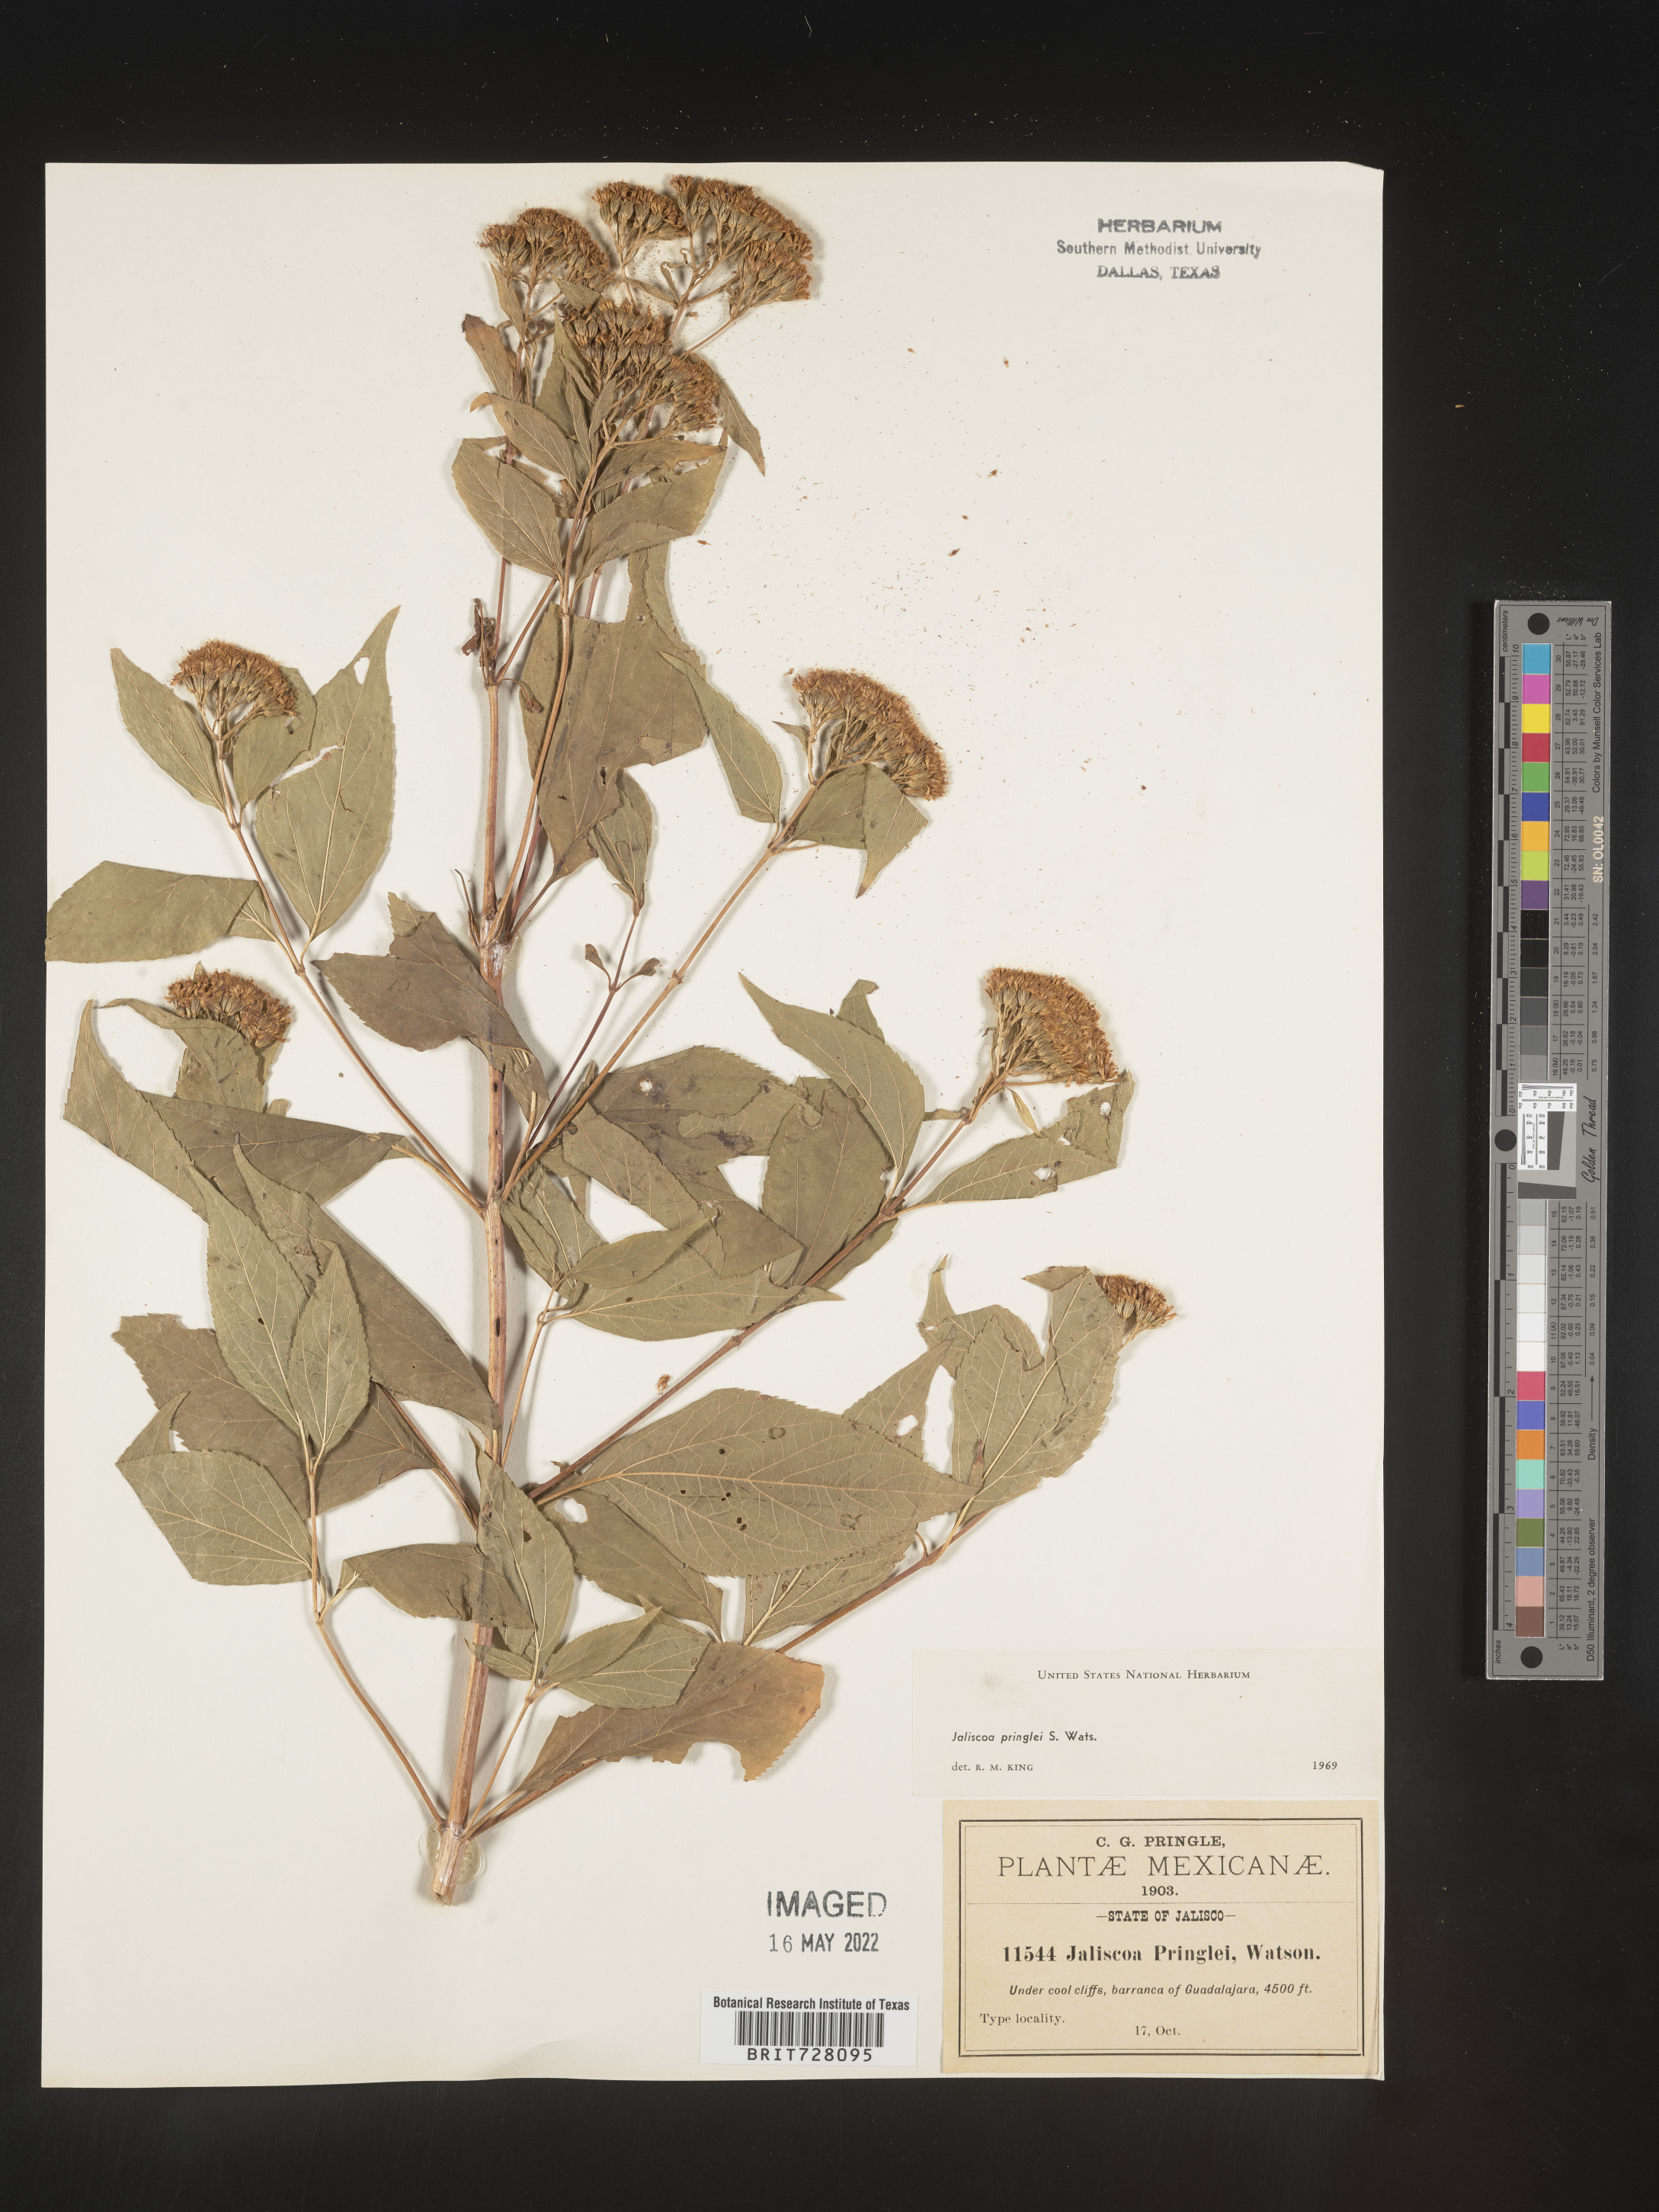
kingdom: Plantae
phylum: Tracheophyta
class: Magnoliopsida
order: Asterales
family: Asteraceae
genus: Jaliscoa
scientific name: Jaliscoa
